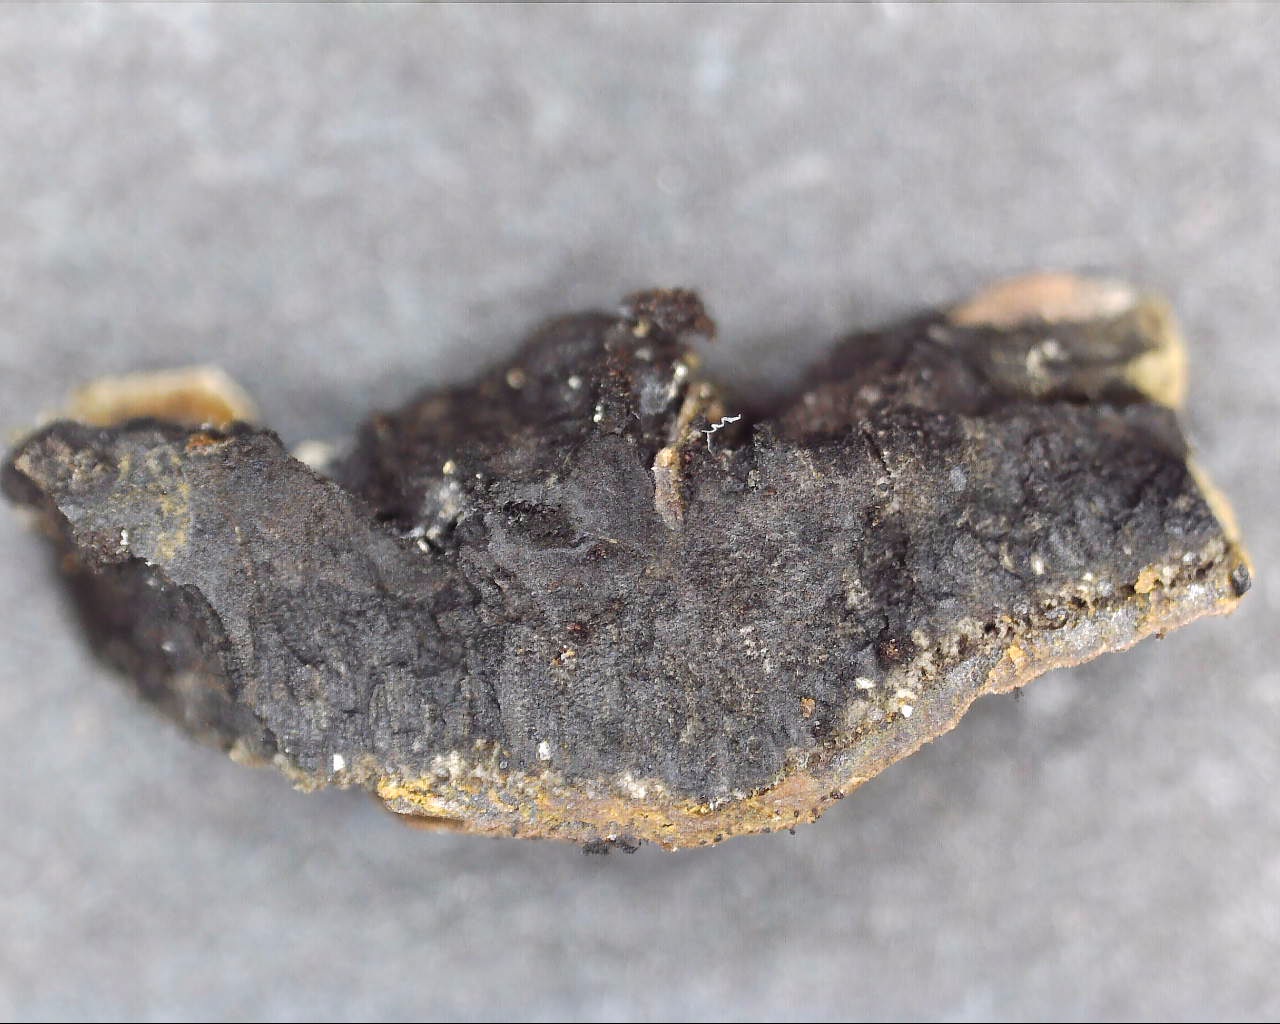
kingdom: Fungi
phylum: Ascomycota
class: Sordariomycetes
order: Xylariales
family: Hypoxylaceae
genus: Jackrogersella
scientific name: Jackrogersella multiformis
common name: foranderlig kulbær
